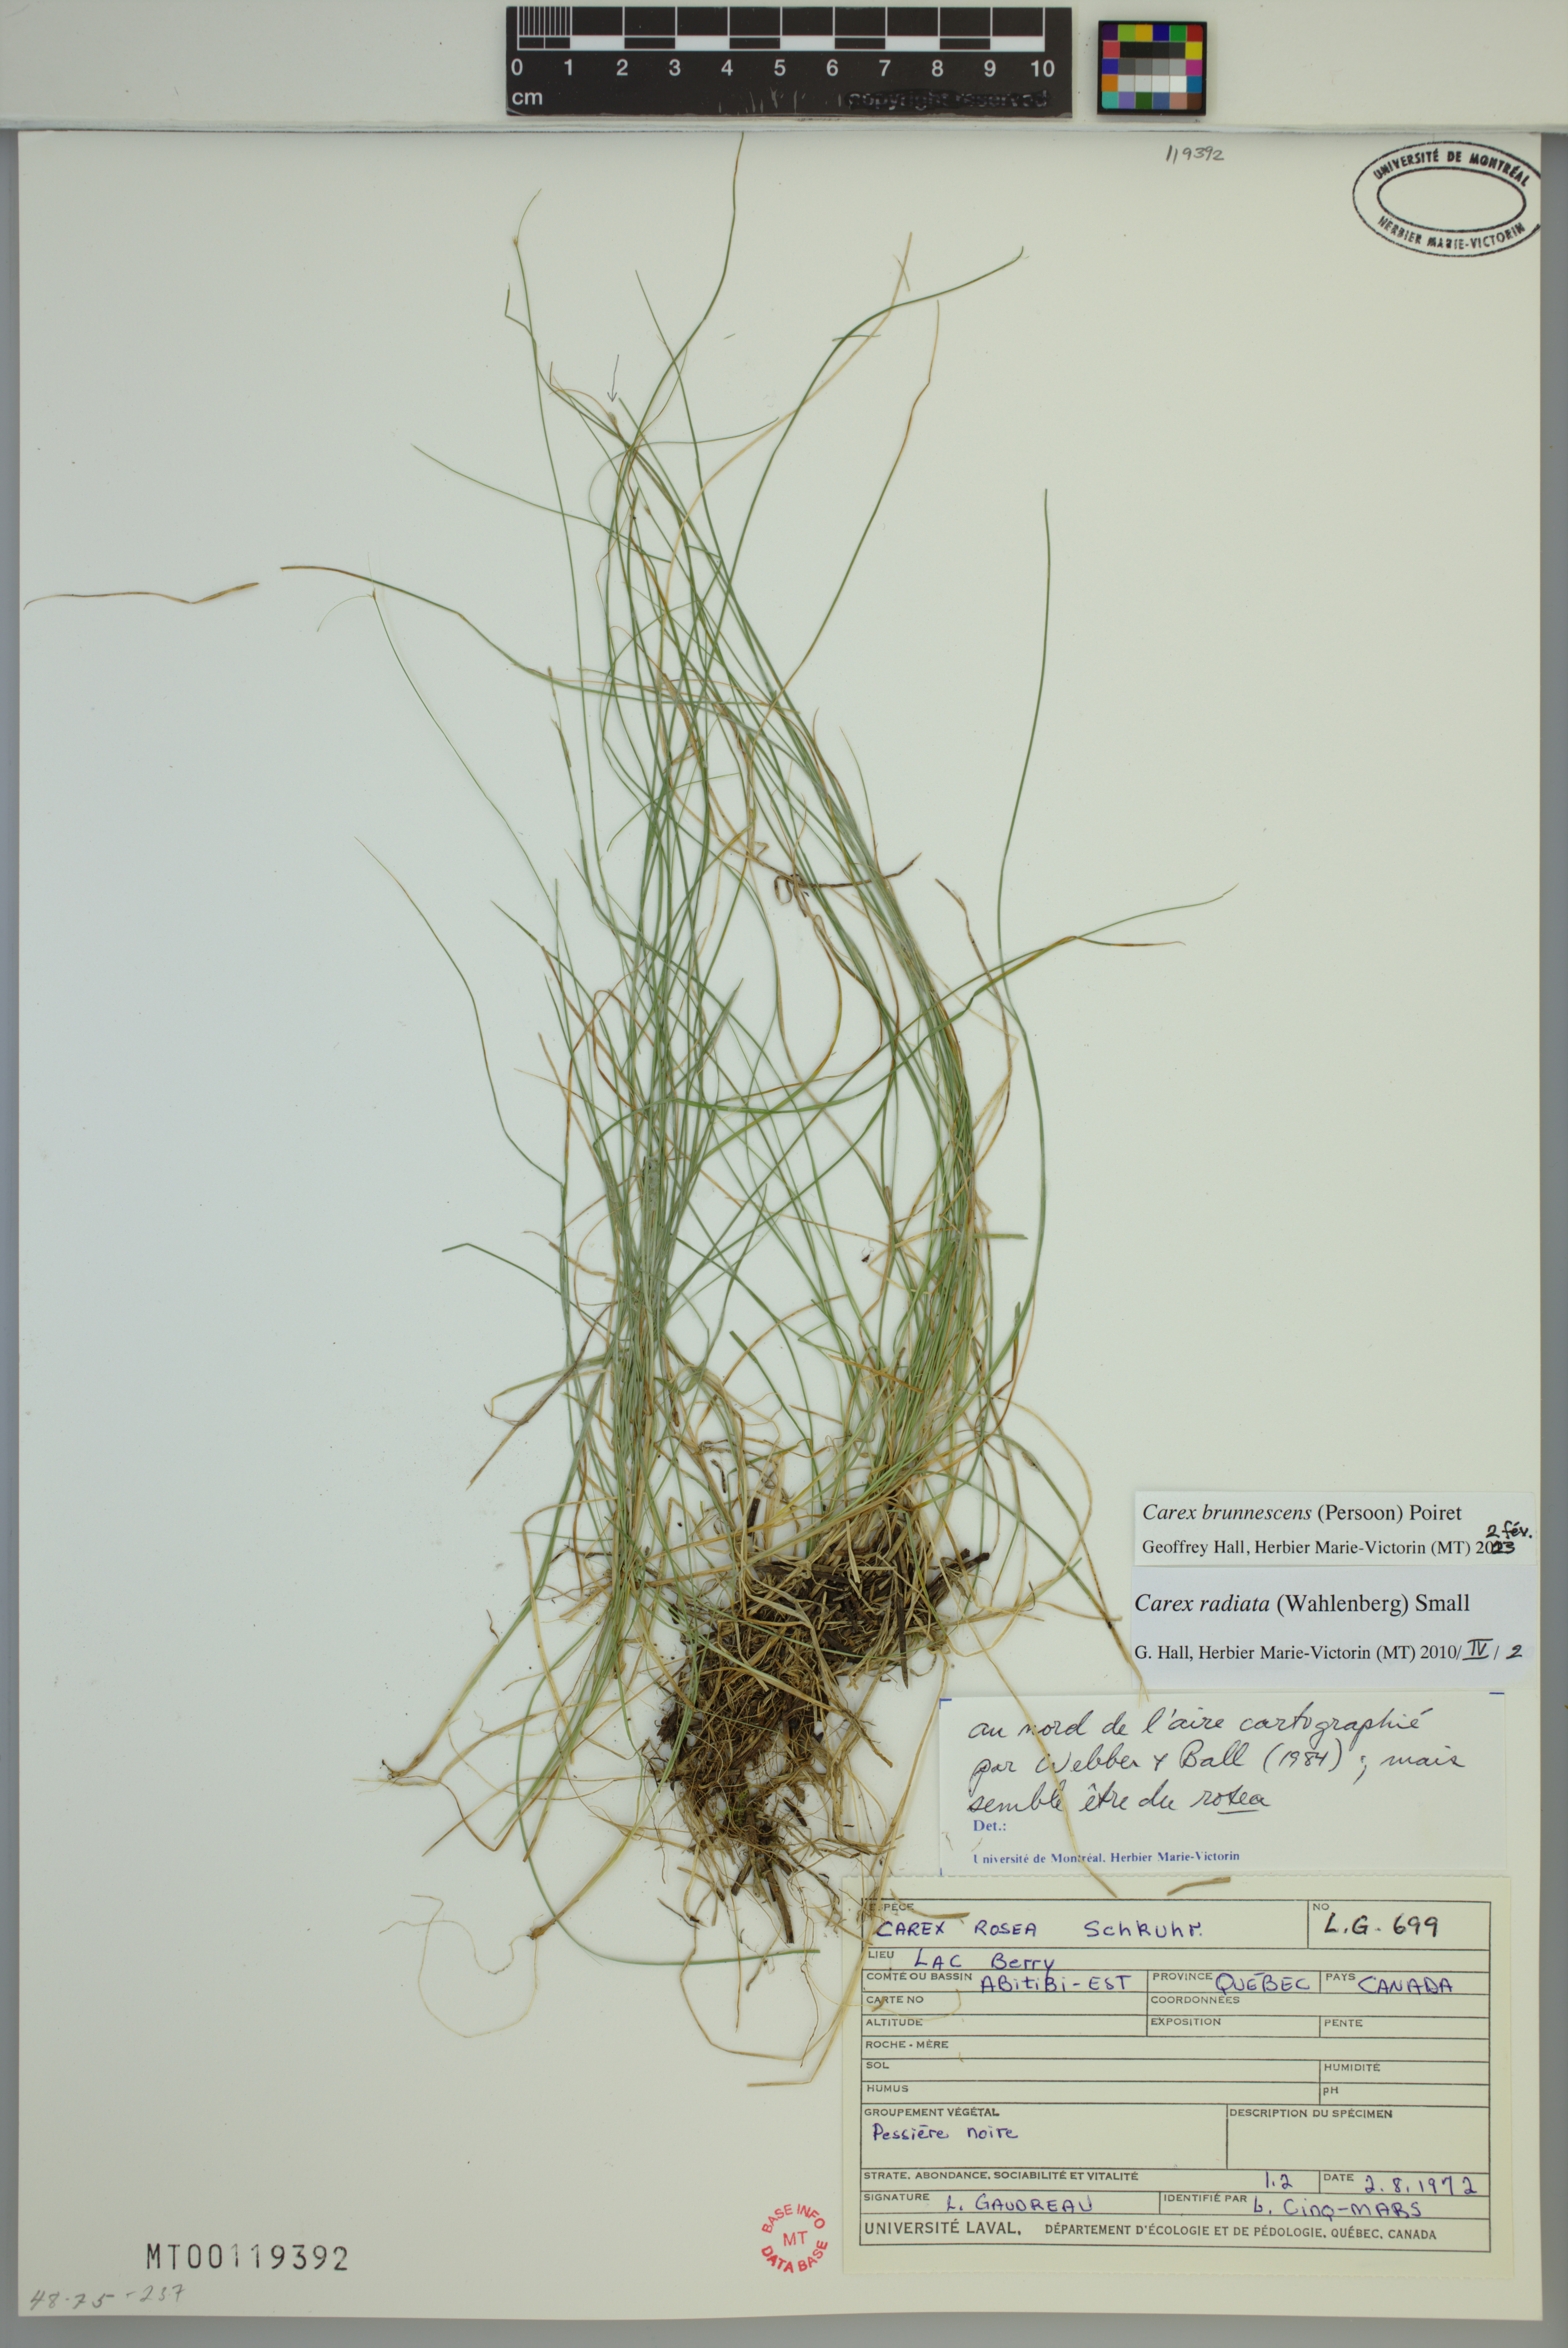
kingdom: Plantae
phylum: Tracheophyta
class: Liliopsida
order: Poales
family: Cyperaceae
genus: Carex
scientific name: Carex brunnescens
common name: Brown sedge
